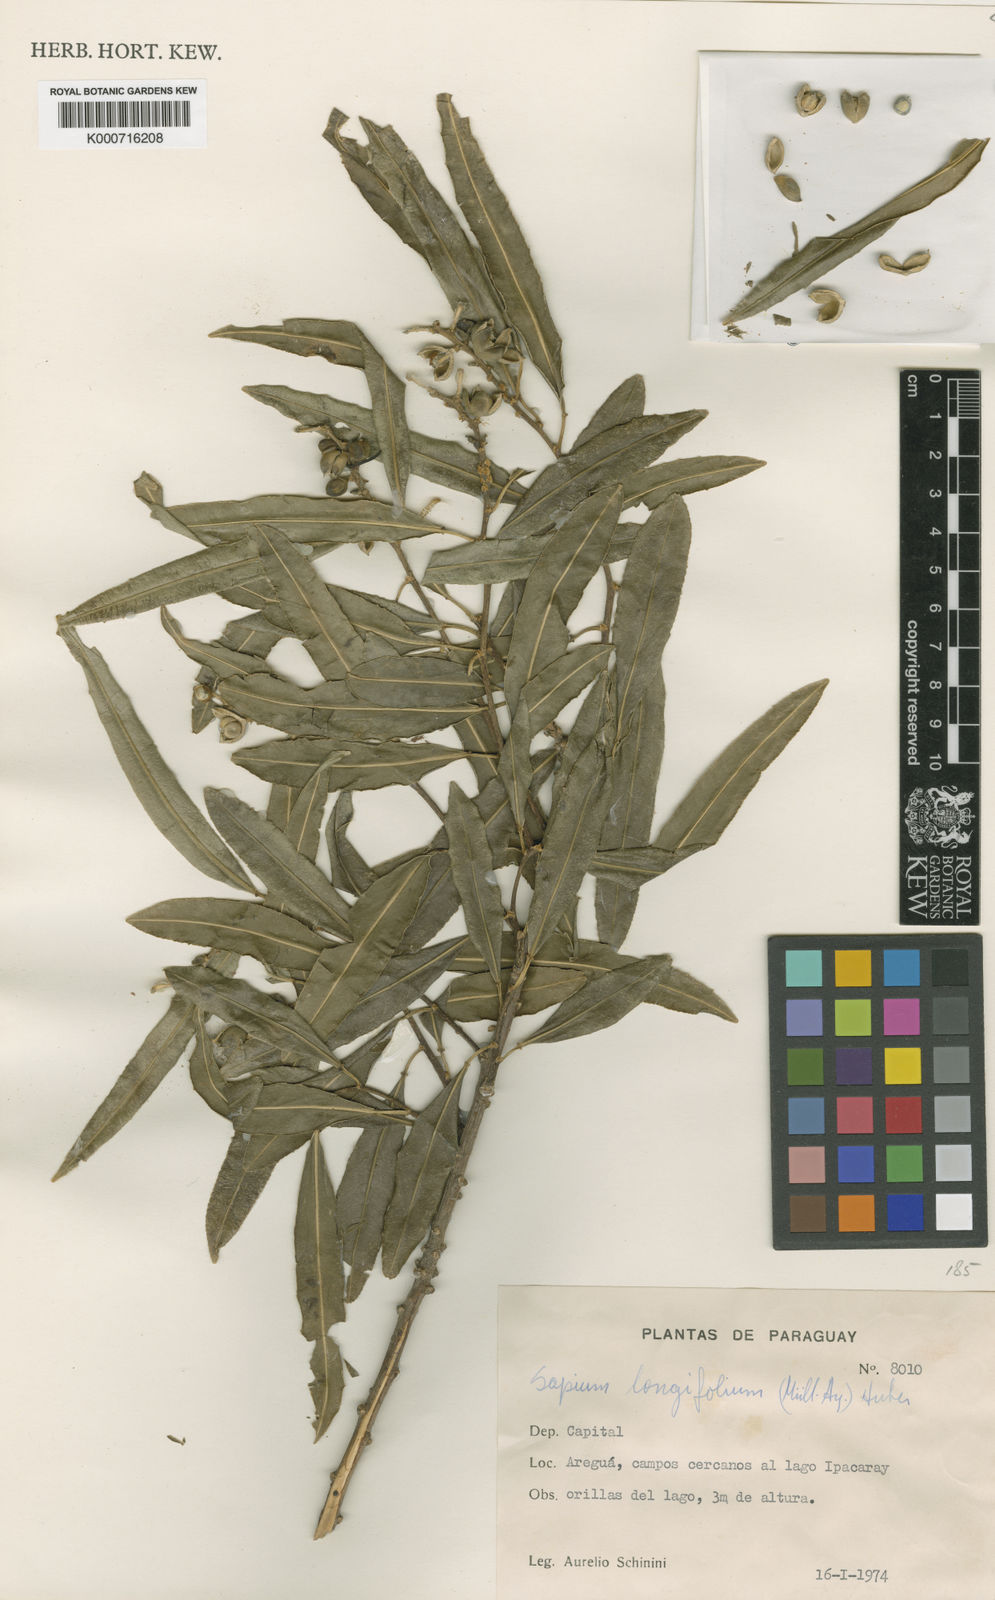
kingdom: Plantae
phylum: Tracheophyta
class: Magnoliopsida
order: Malpighiales
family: Euphorbiaceae
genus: Sapium
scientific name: Sapium
